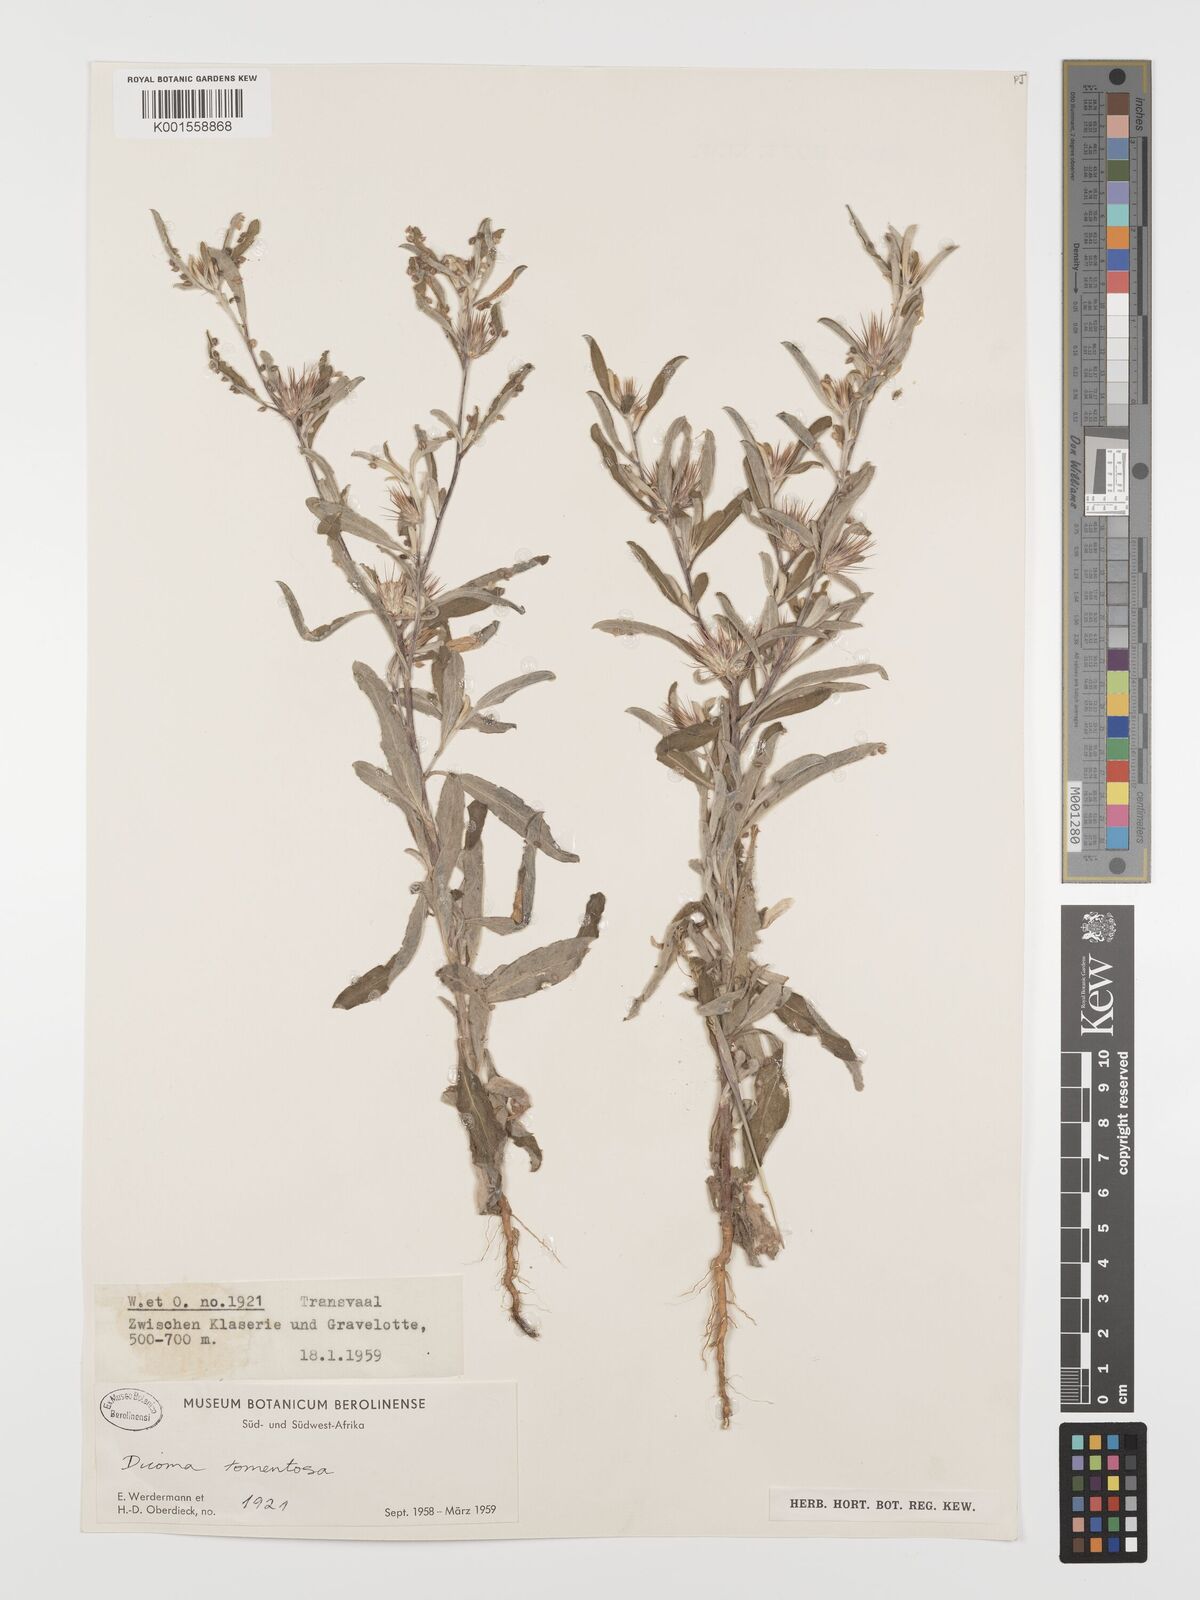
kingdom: Plantae
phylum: Tracheophyta
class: Magnoliopsida
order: Asterales
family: Asteraceae
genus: Dicoma
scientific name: Dicoma tomentosa
